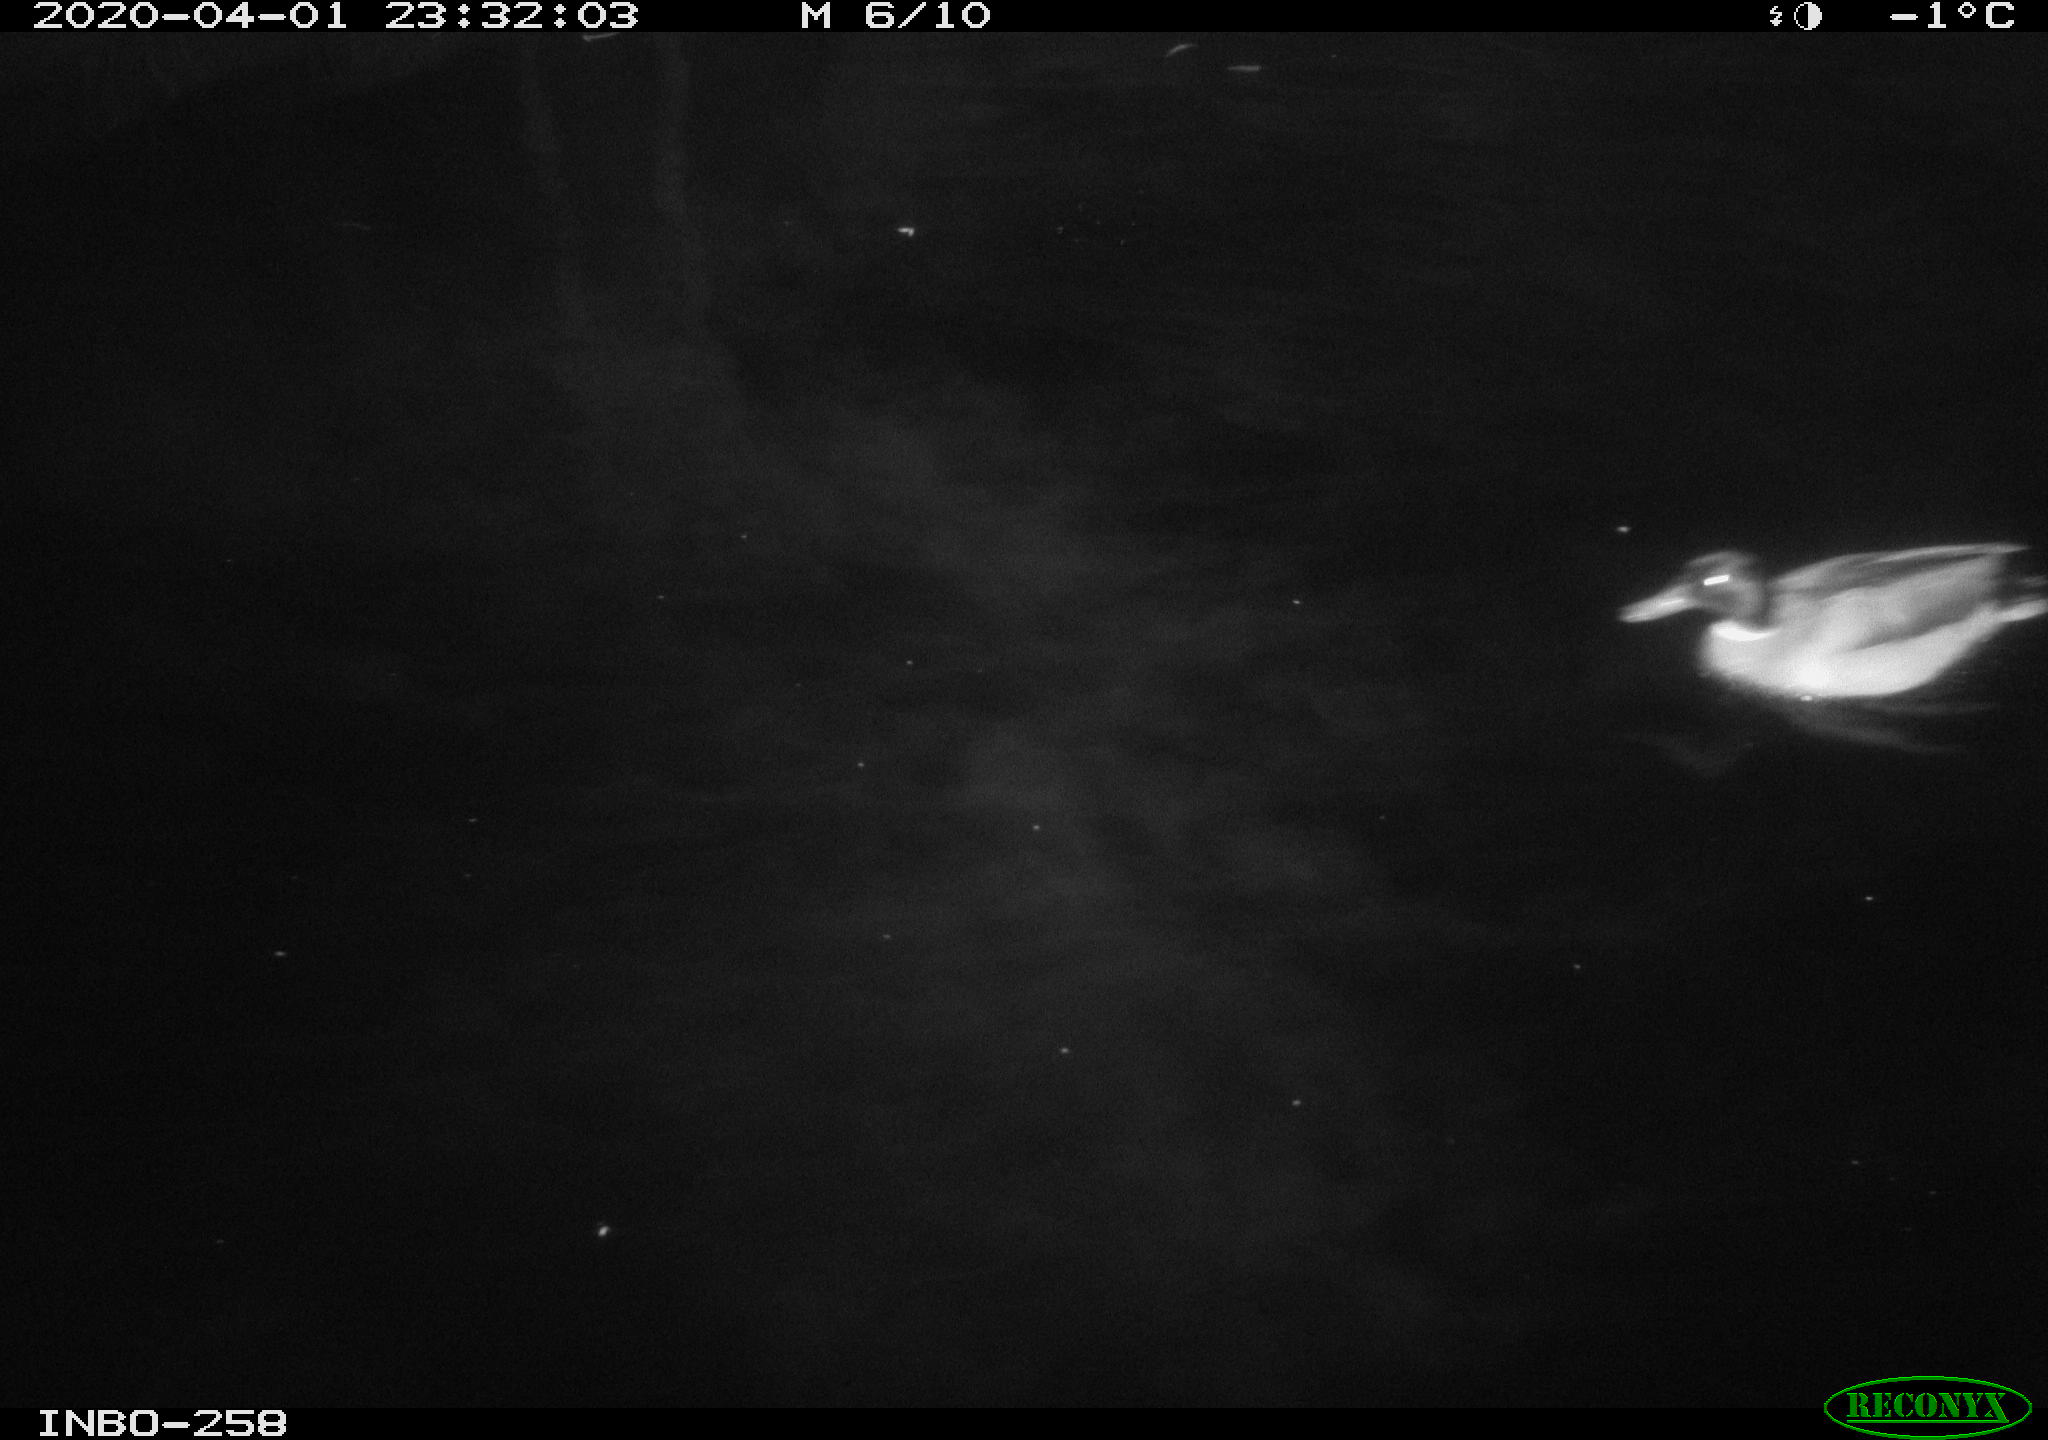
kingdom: Animalia
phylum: Chordata
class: Aves
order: Anseriformes
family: Anatidae
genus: Anas
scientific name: Anas platyrhynchos
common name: Mallard
